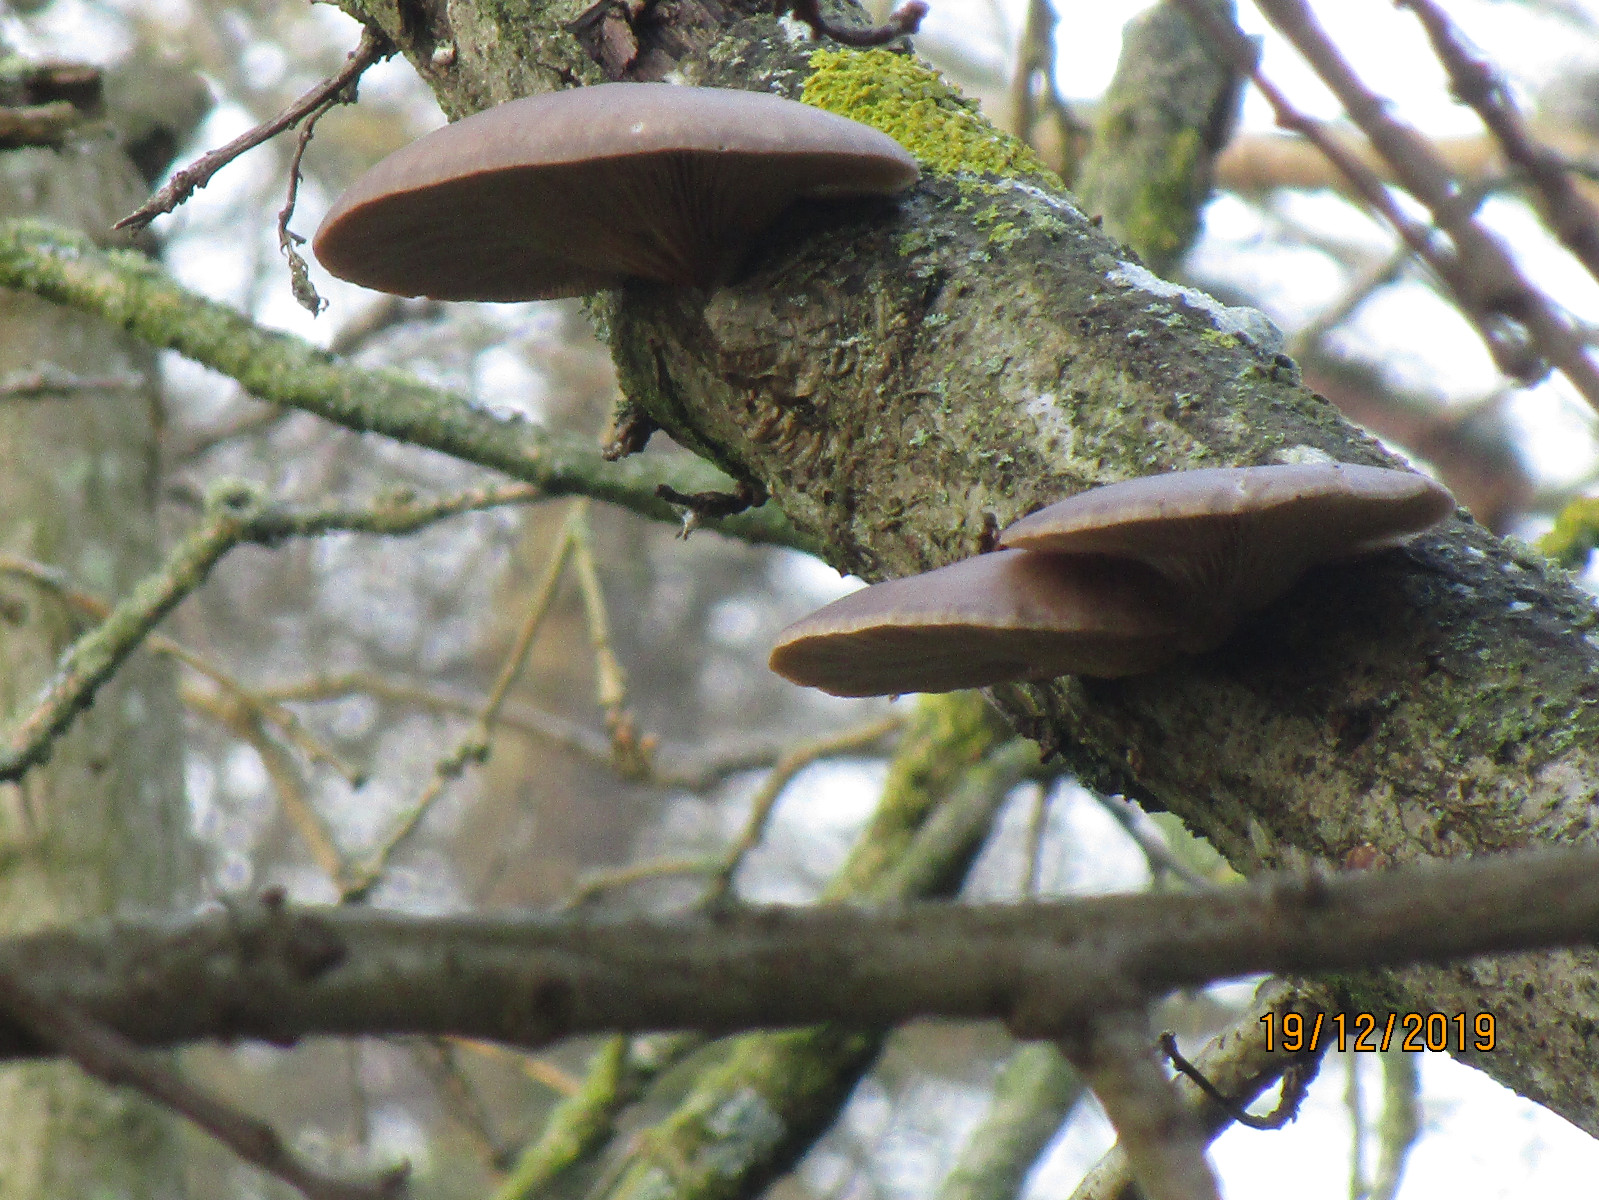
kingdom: Fungi
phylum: Basidiomycota
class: Agaricomycetes
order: Agaricales
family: Pleurotaceae
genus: Pleurotus
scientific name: Pleurotus ostreatus
